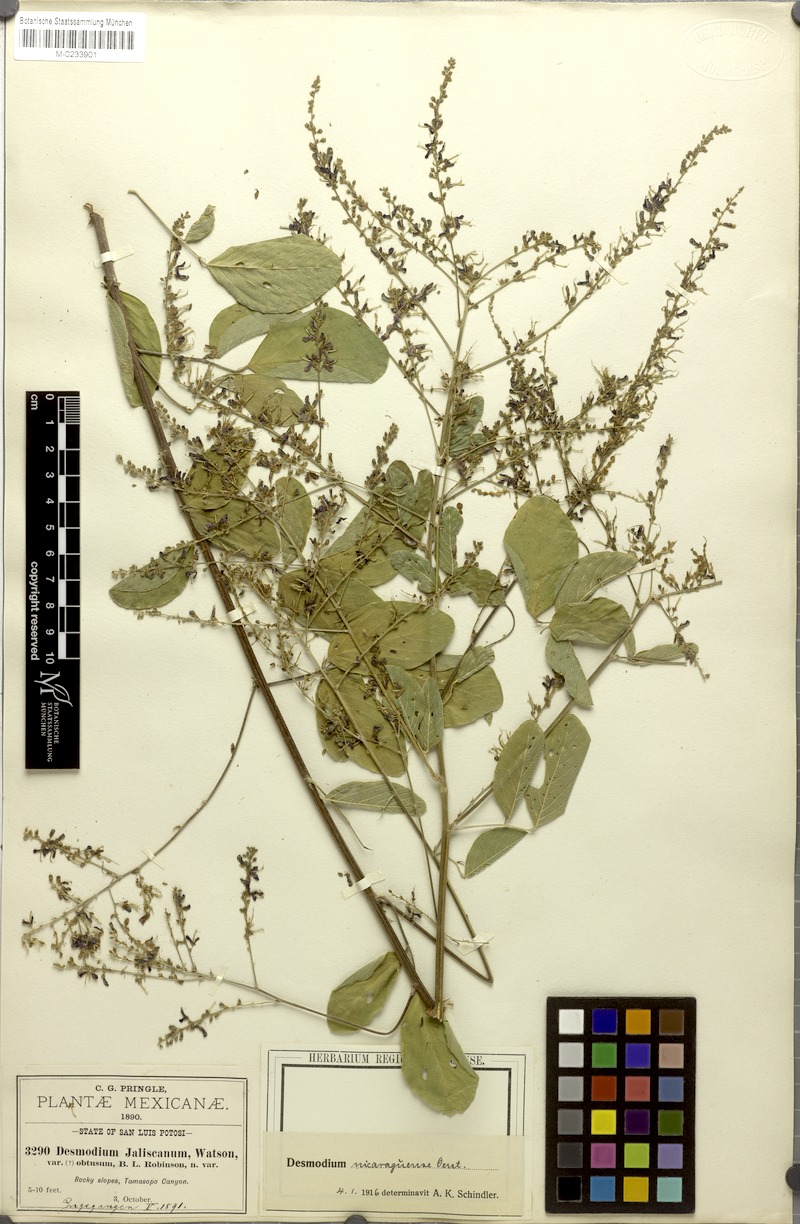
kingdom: Plantae
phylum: Tracheophyta
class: Magnoliopsida
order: Fabales
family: Fabaceae
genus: Desmodium
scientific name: Desmodium nicaraguense
